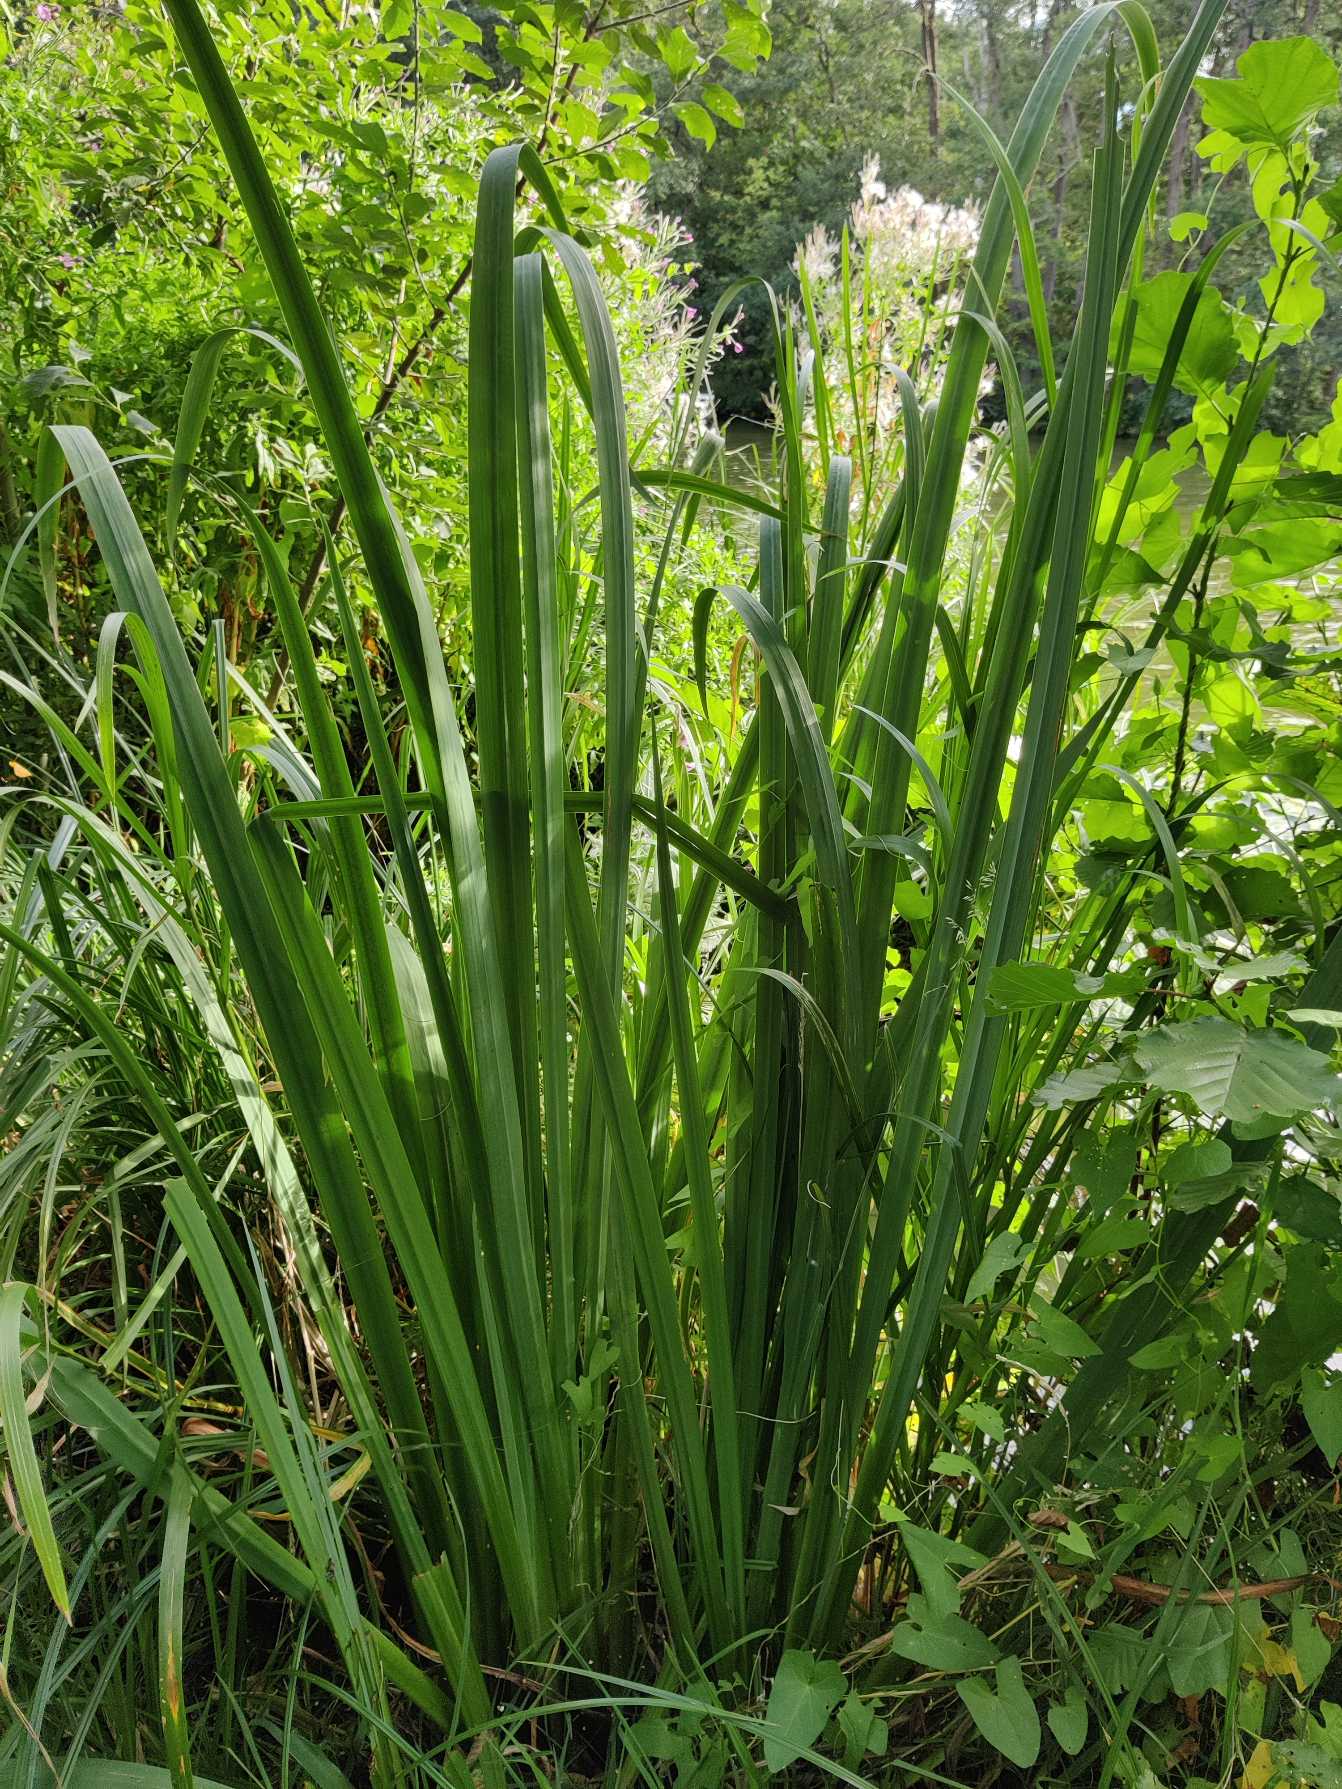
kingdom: Plantae
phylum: Tracheophyta
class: Liliopsida
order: Acorales
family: Acoraceae
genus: Acorus
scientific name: Acorus calamus
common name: Kalmus
